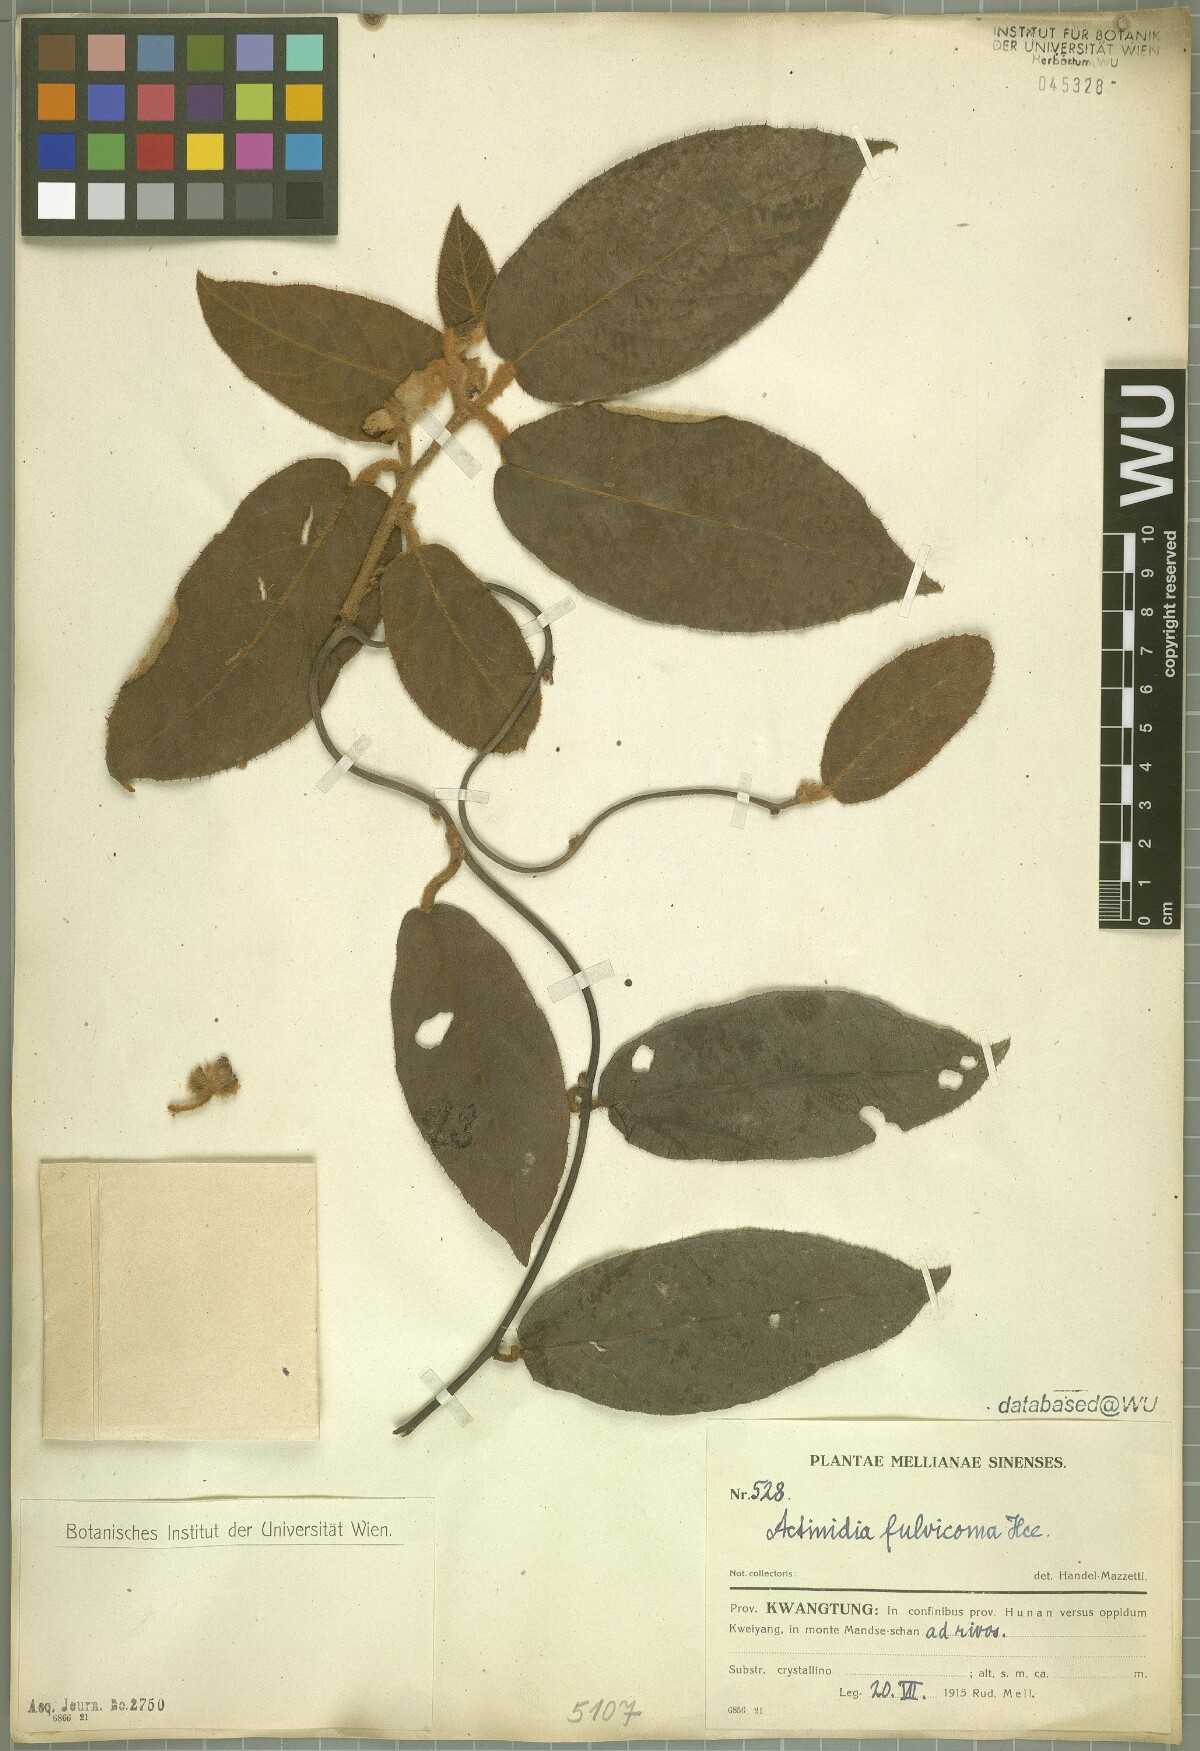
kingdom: Plantae
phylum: Tracheophyta
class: Magnoliopsida
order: Ericales
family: Actinidiaceae
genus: Actinidia
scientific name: Actinidia fulvicoma
